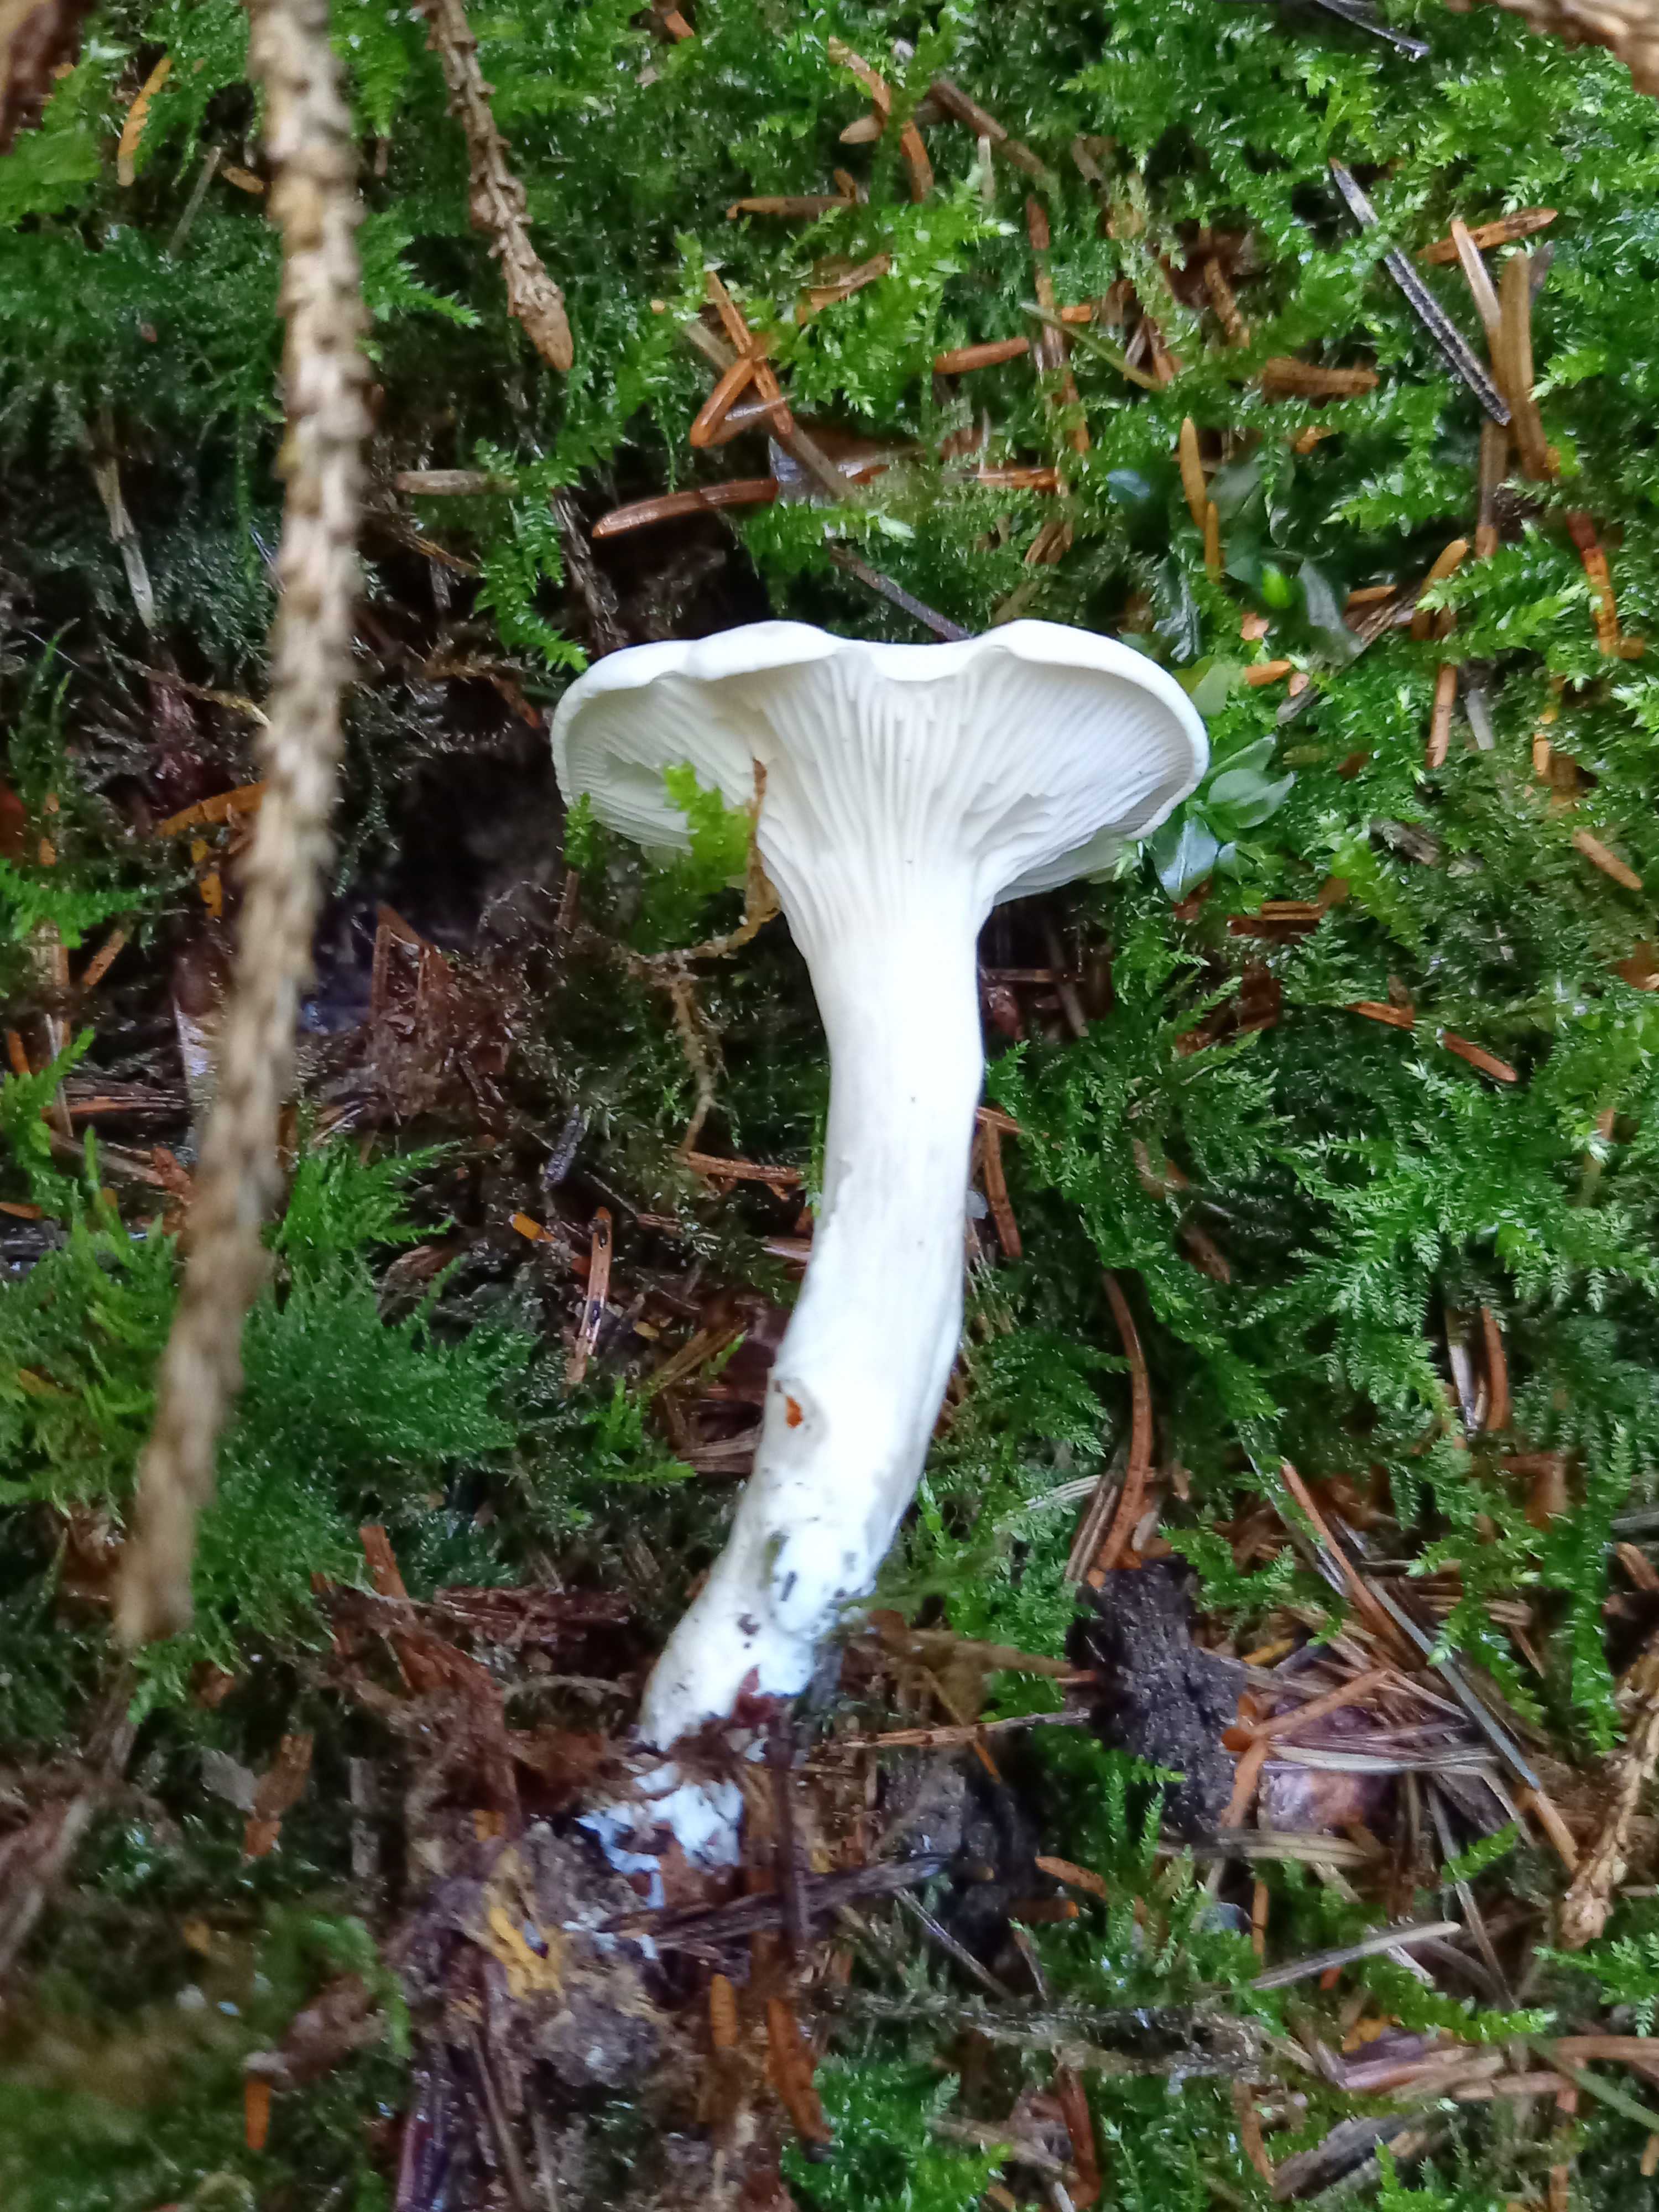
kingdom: Fungi
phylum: Basidiomycota
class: Agaricomycetes
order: Agaricales
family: Entolomataceae
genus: Clitopilus
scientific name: Clitopilus prunulus
